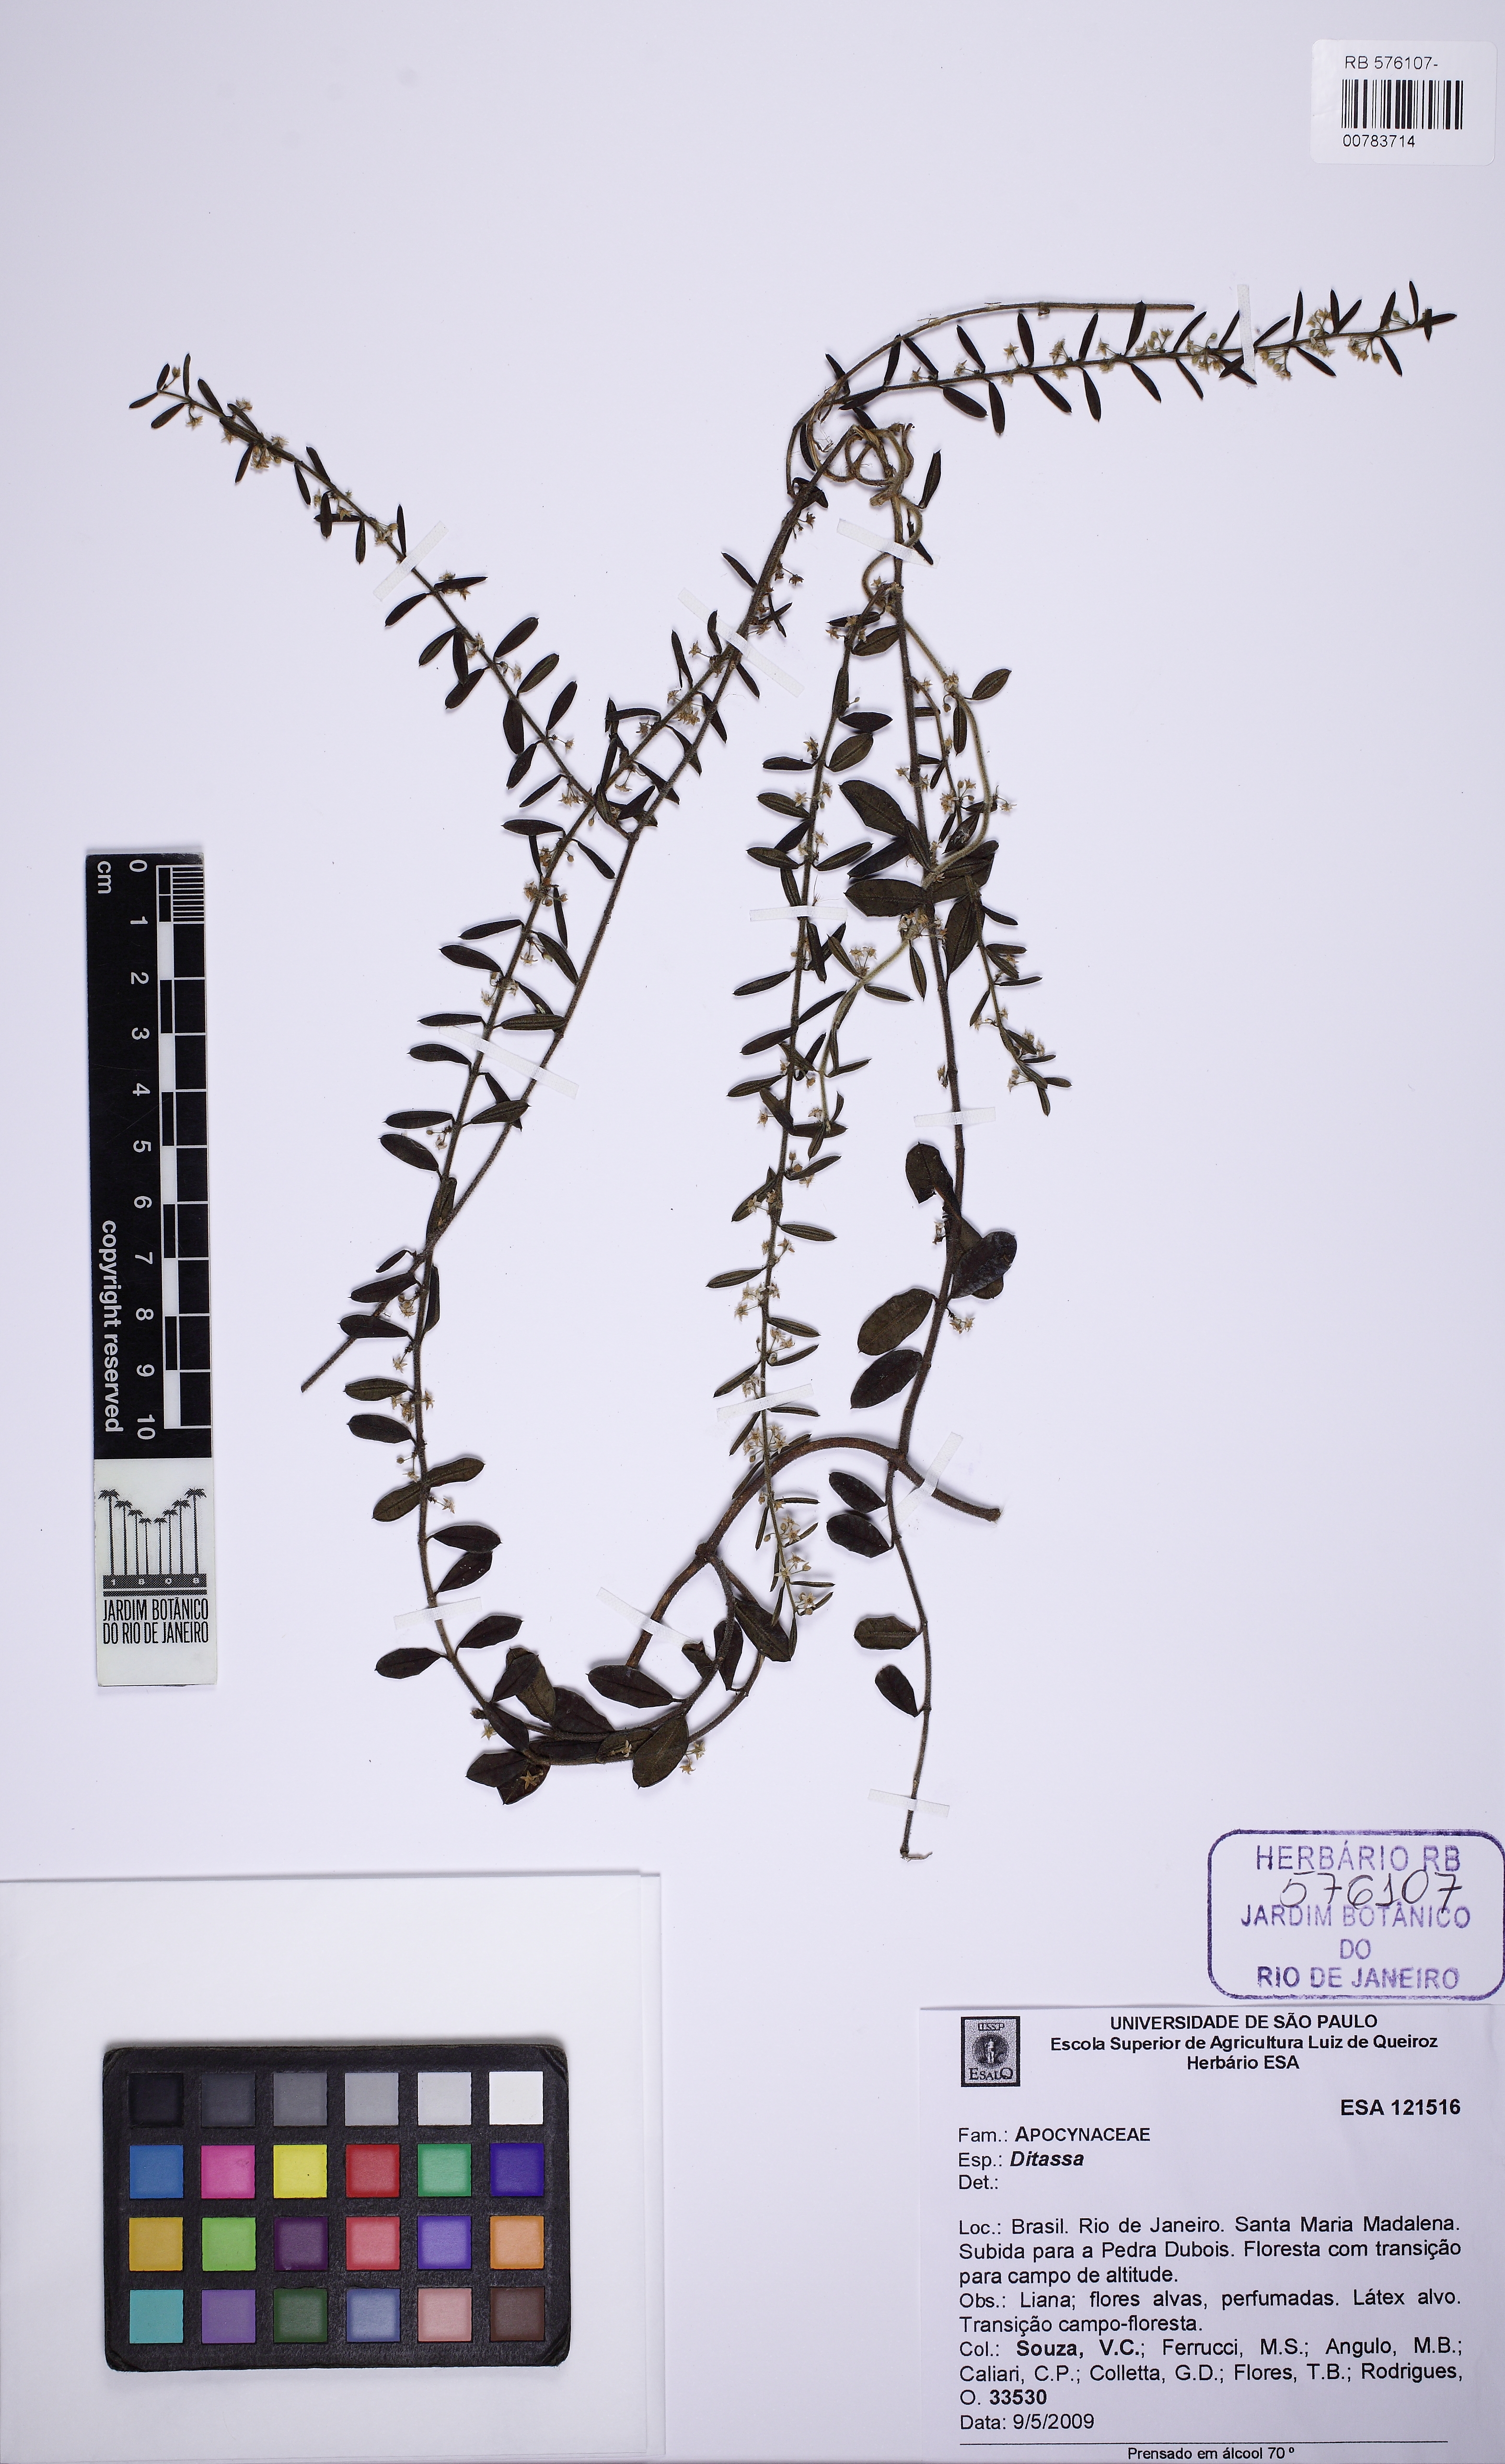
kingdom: Plantae
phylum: Tracheophyta
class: Magnoliopsida
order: Gentianales
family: Apocynaceae
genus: Ditassa
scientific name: Ditassa
